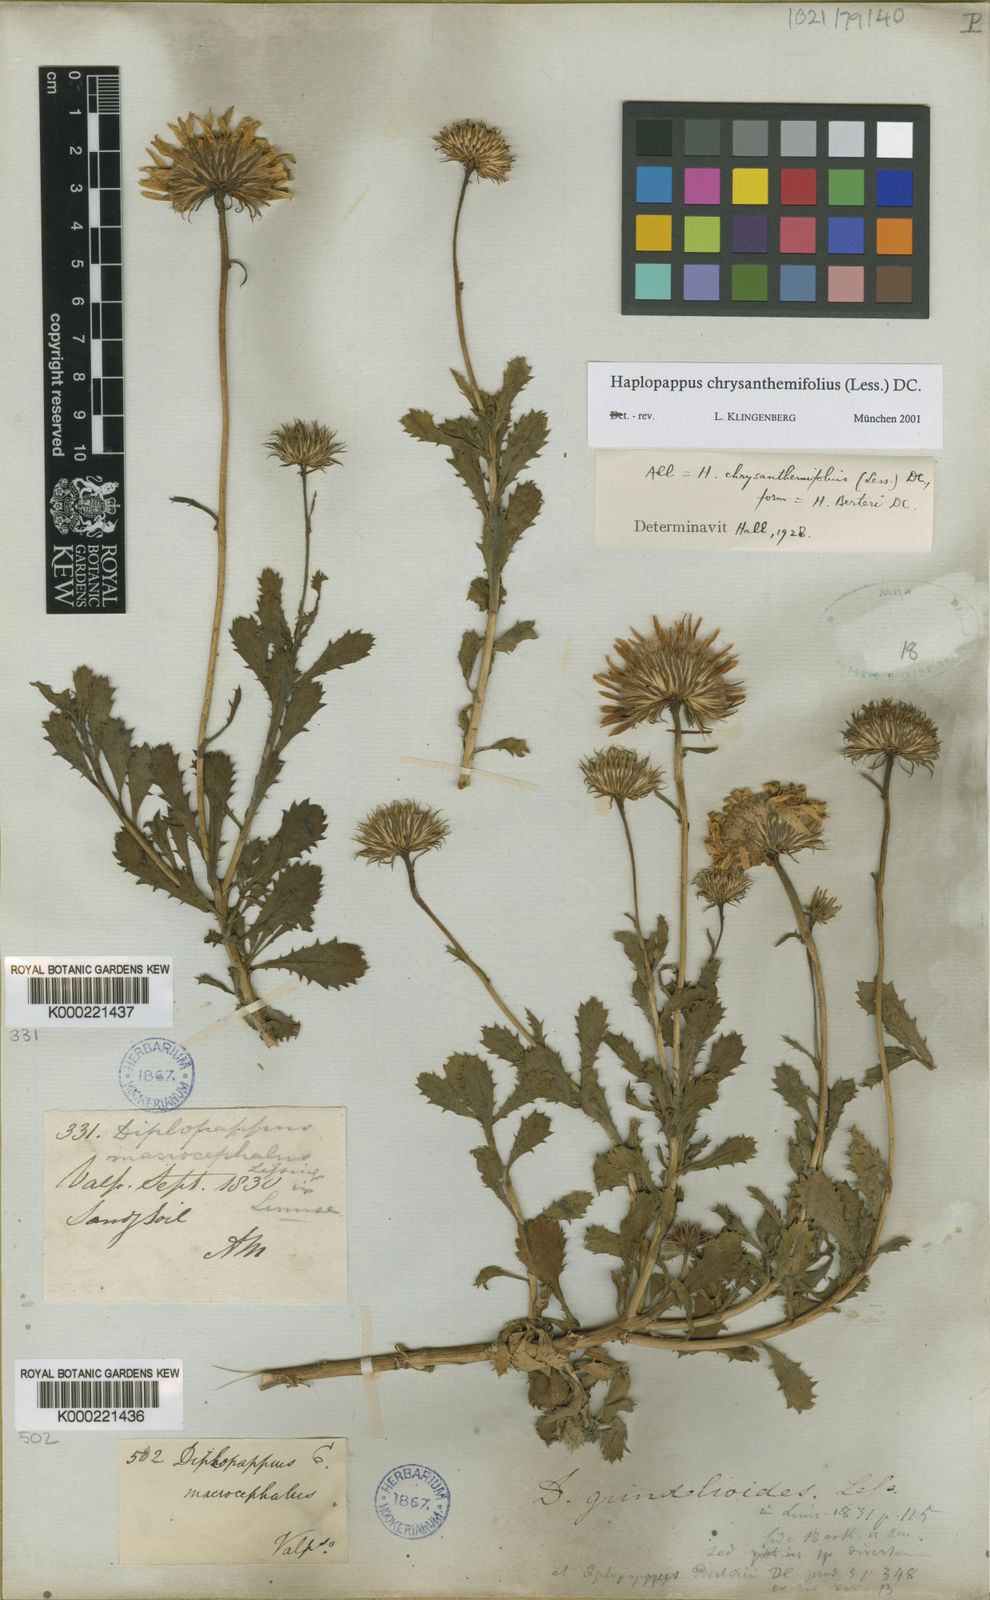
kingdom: Plantae
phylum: Tracheophyta
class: Magnoliopsida
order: Asterales
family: Asteraceae
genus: Haplopappus
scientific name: Haplopappus chrysanthemifolius
